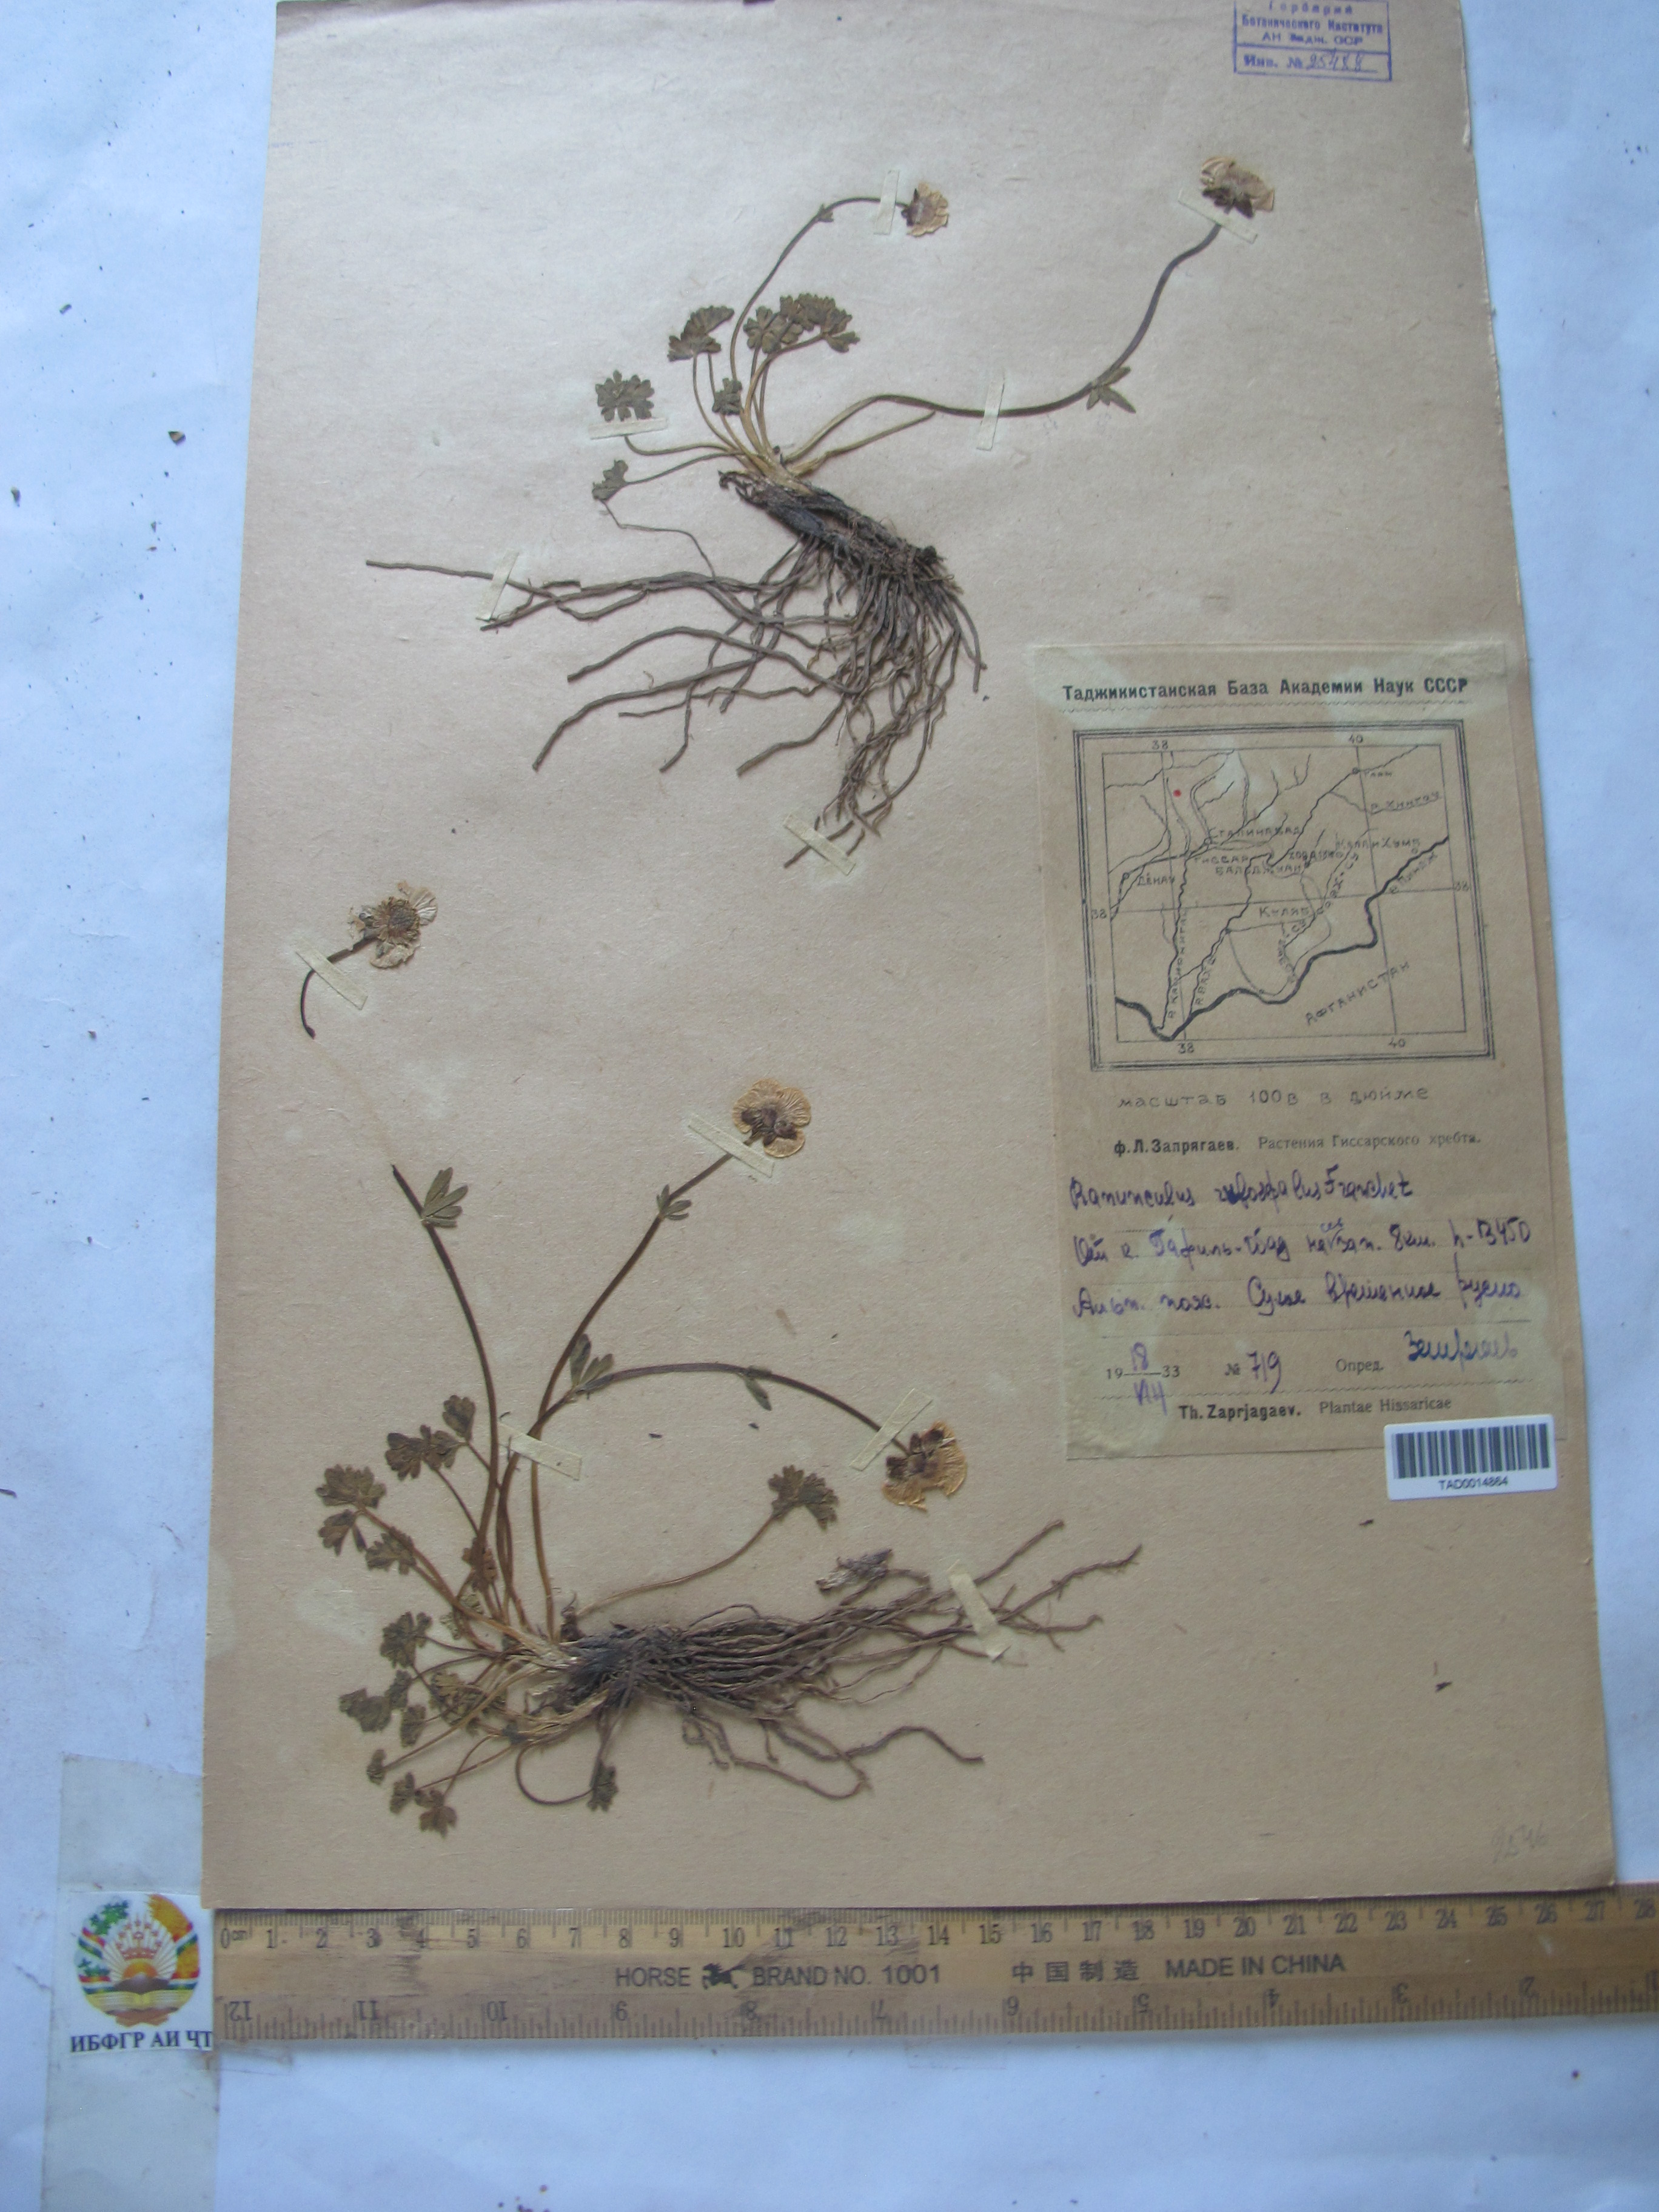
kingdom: Plantae
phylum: Tracheophyta
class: Magnoliopsida
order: Ranunculales
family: Ranunculaceae
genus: Ranunculus
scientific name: Ranunculus rufosepalus
